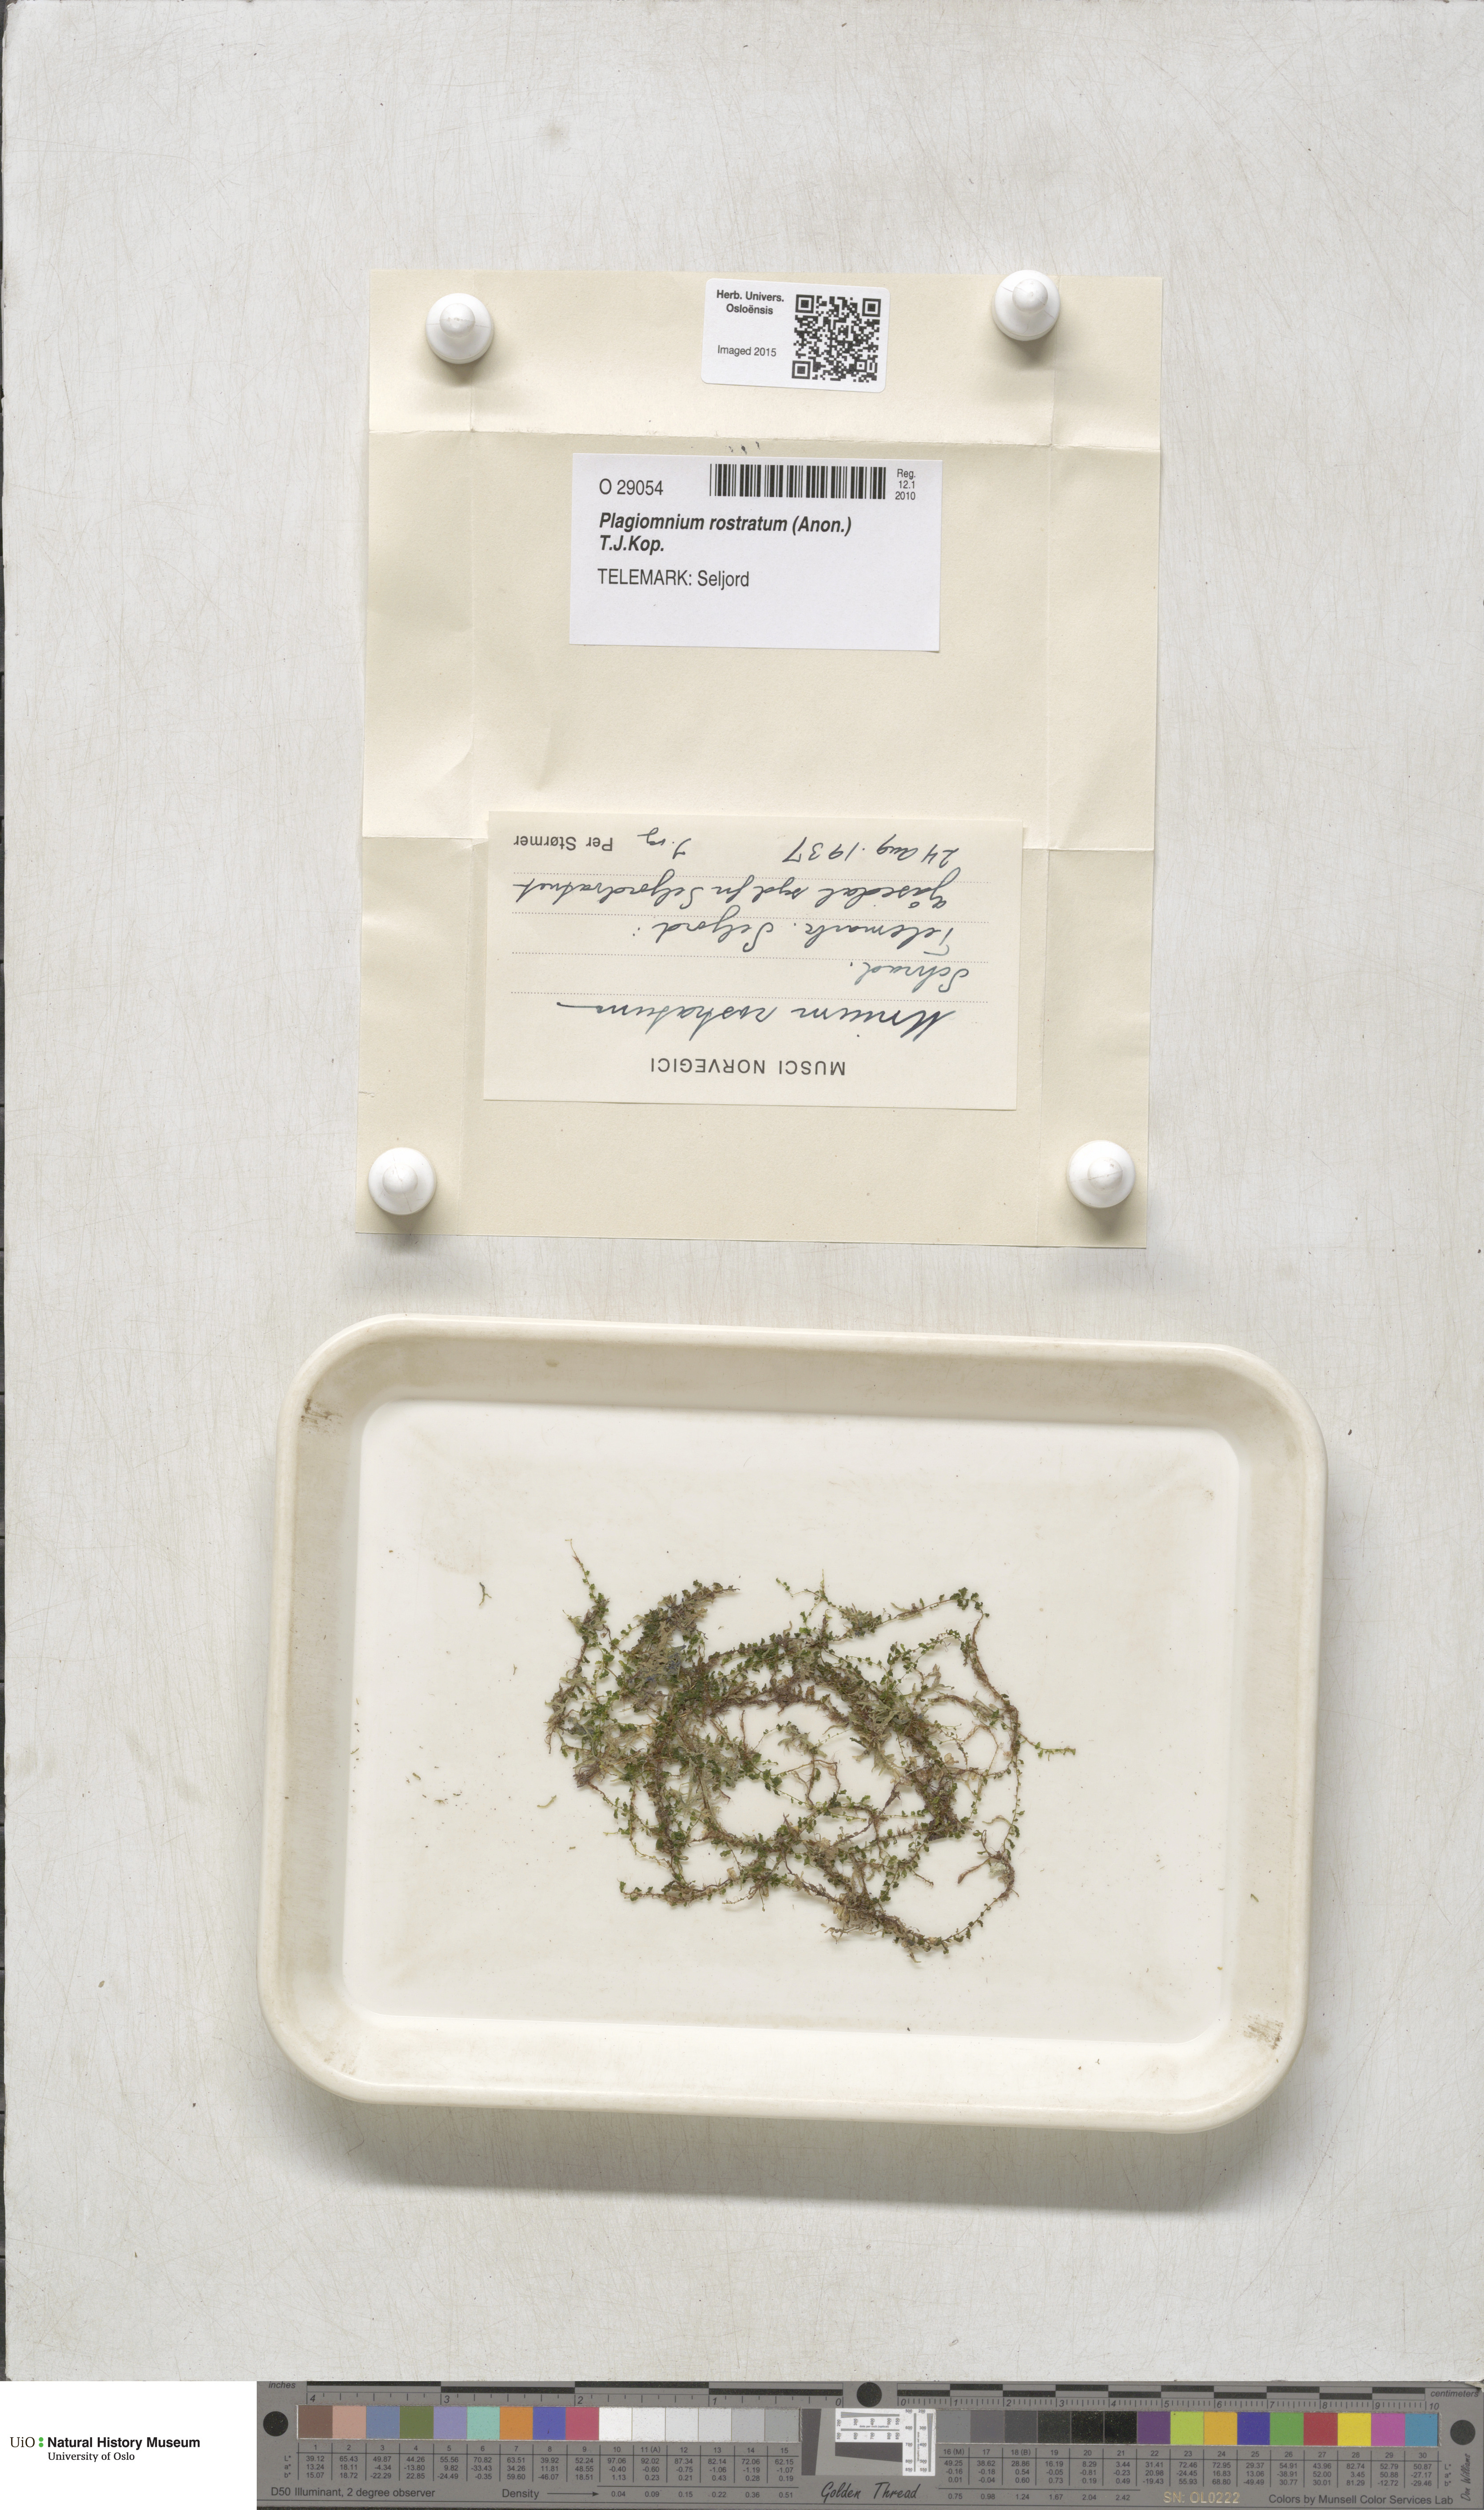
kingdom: Plantae
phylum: Bryophyta
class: Bryopsida
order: Bryales
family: Mniaceae
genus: Plagiomnium
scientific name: Plagiomnium rostratum
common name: Long-beaked leafy moss
